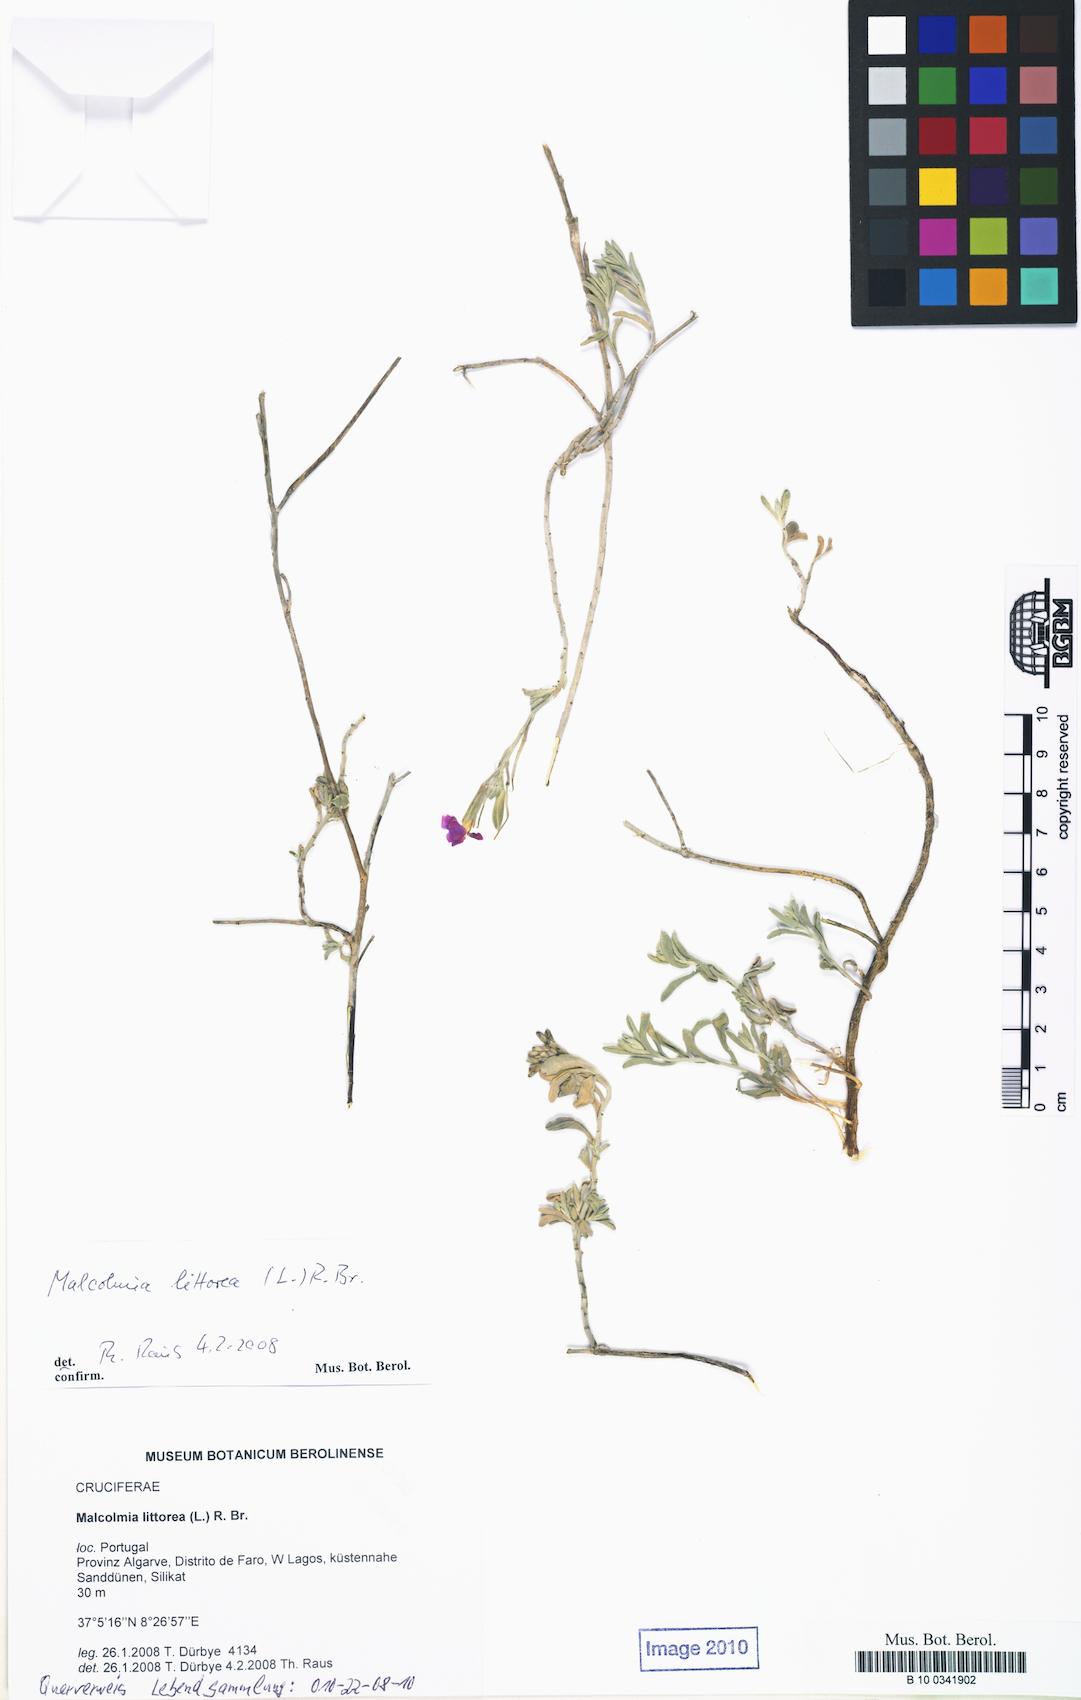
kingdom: Plantae
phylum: Tracheophyta
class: Magnoliopsida
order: Brassicales
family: Brassicaceae
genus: Marcuskochia
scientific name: Marcuskochia littorea
